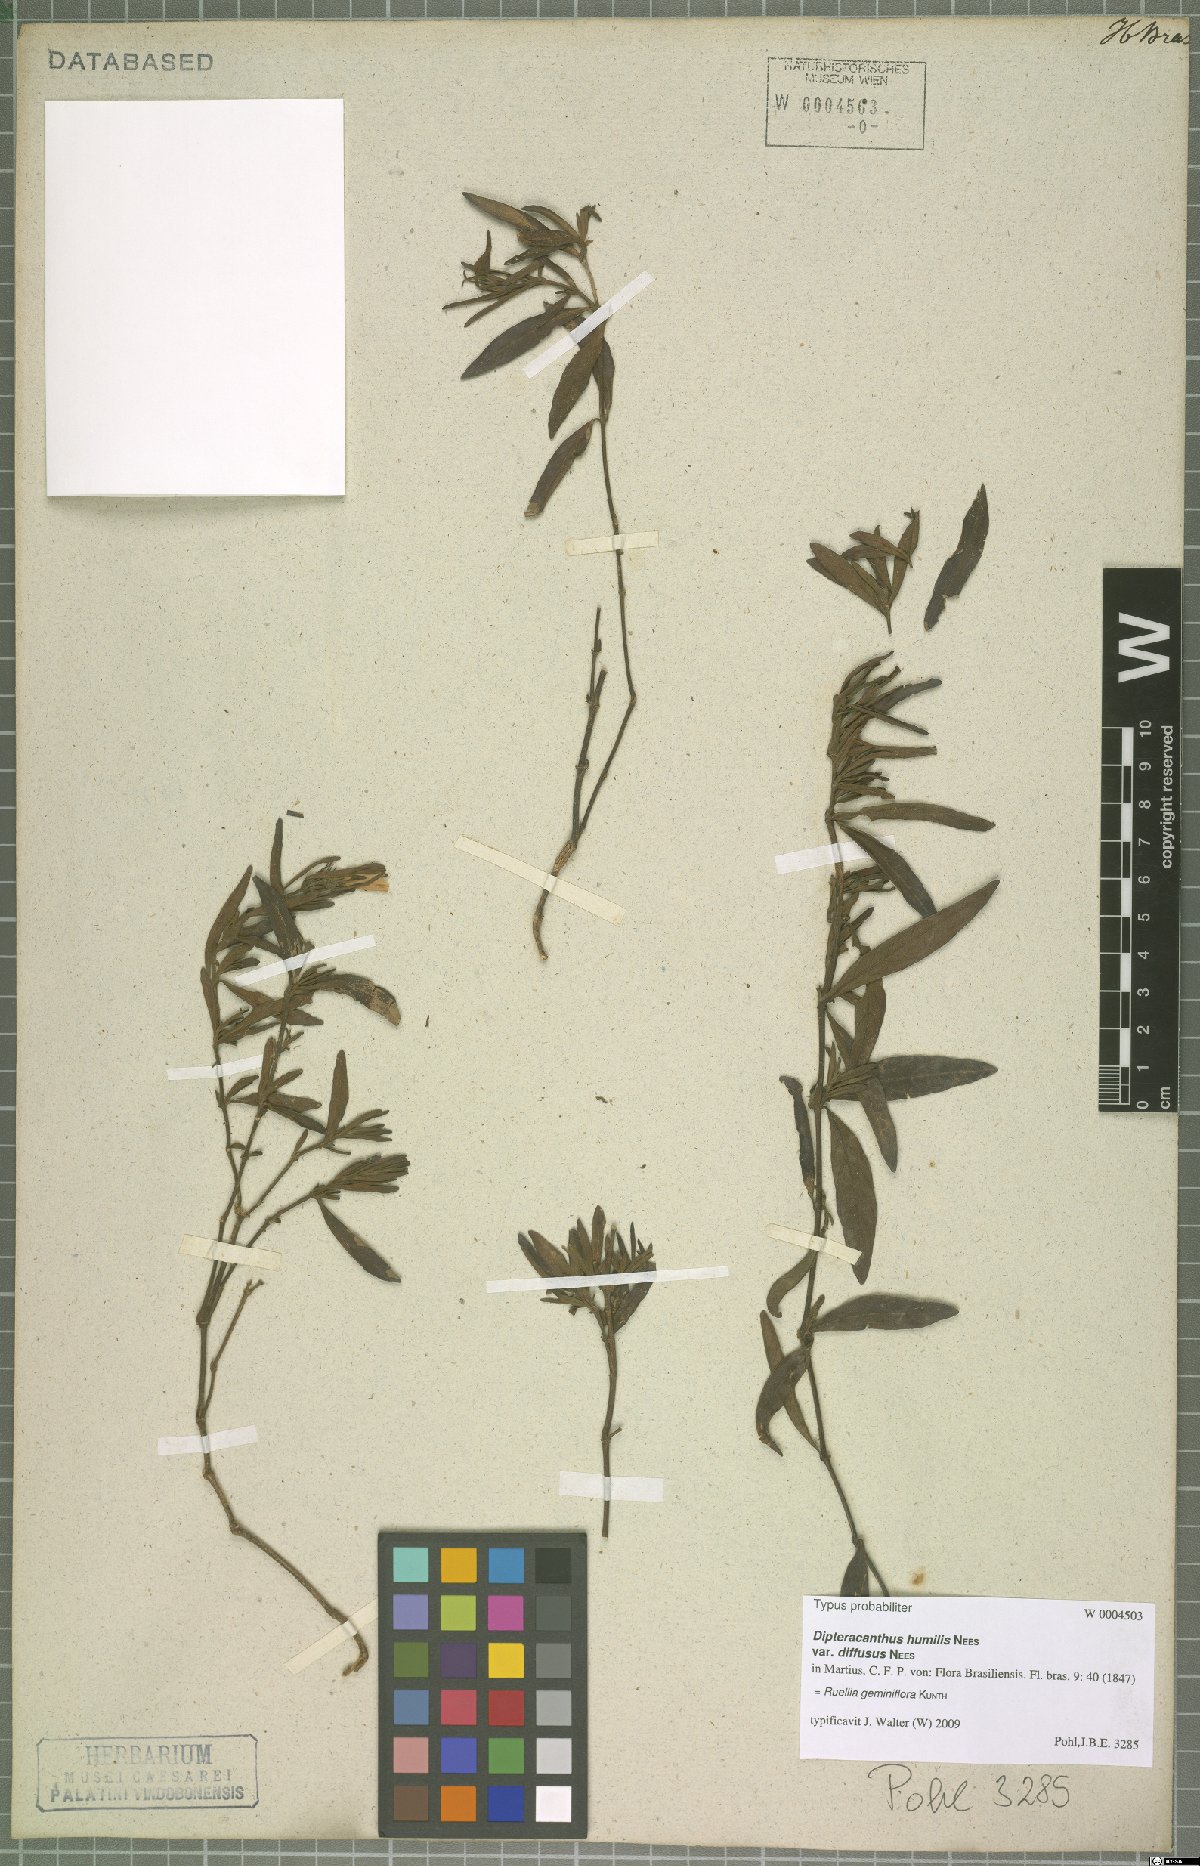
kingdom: Plantae
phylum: Tracheophyta
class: Magnoliopsida
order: Lamiales
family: Acanthaceae
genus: Ruellia
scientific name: Ruellia geminiflora
